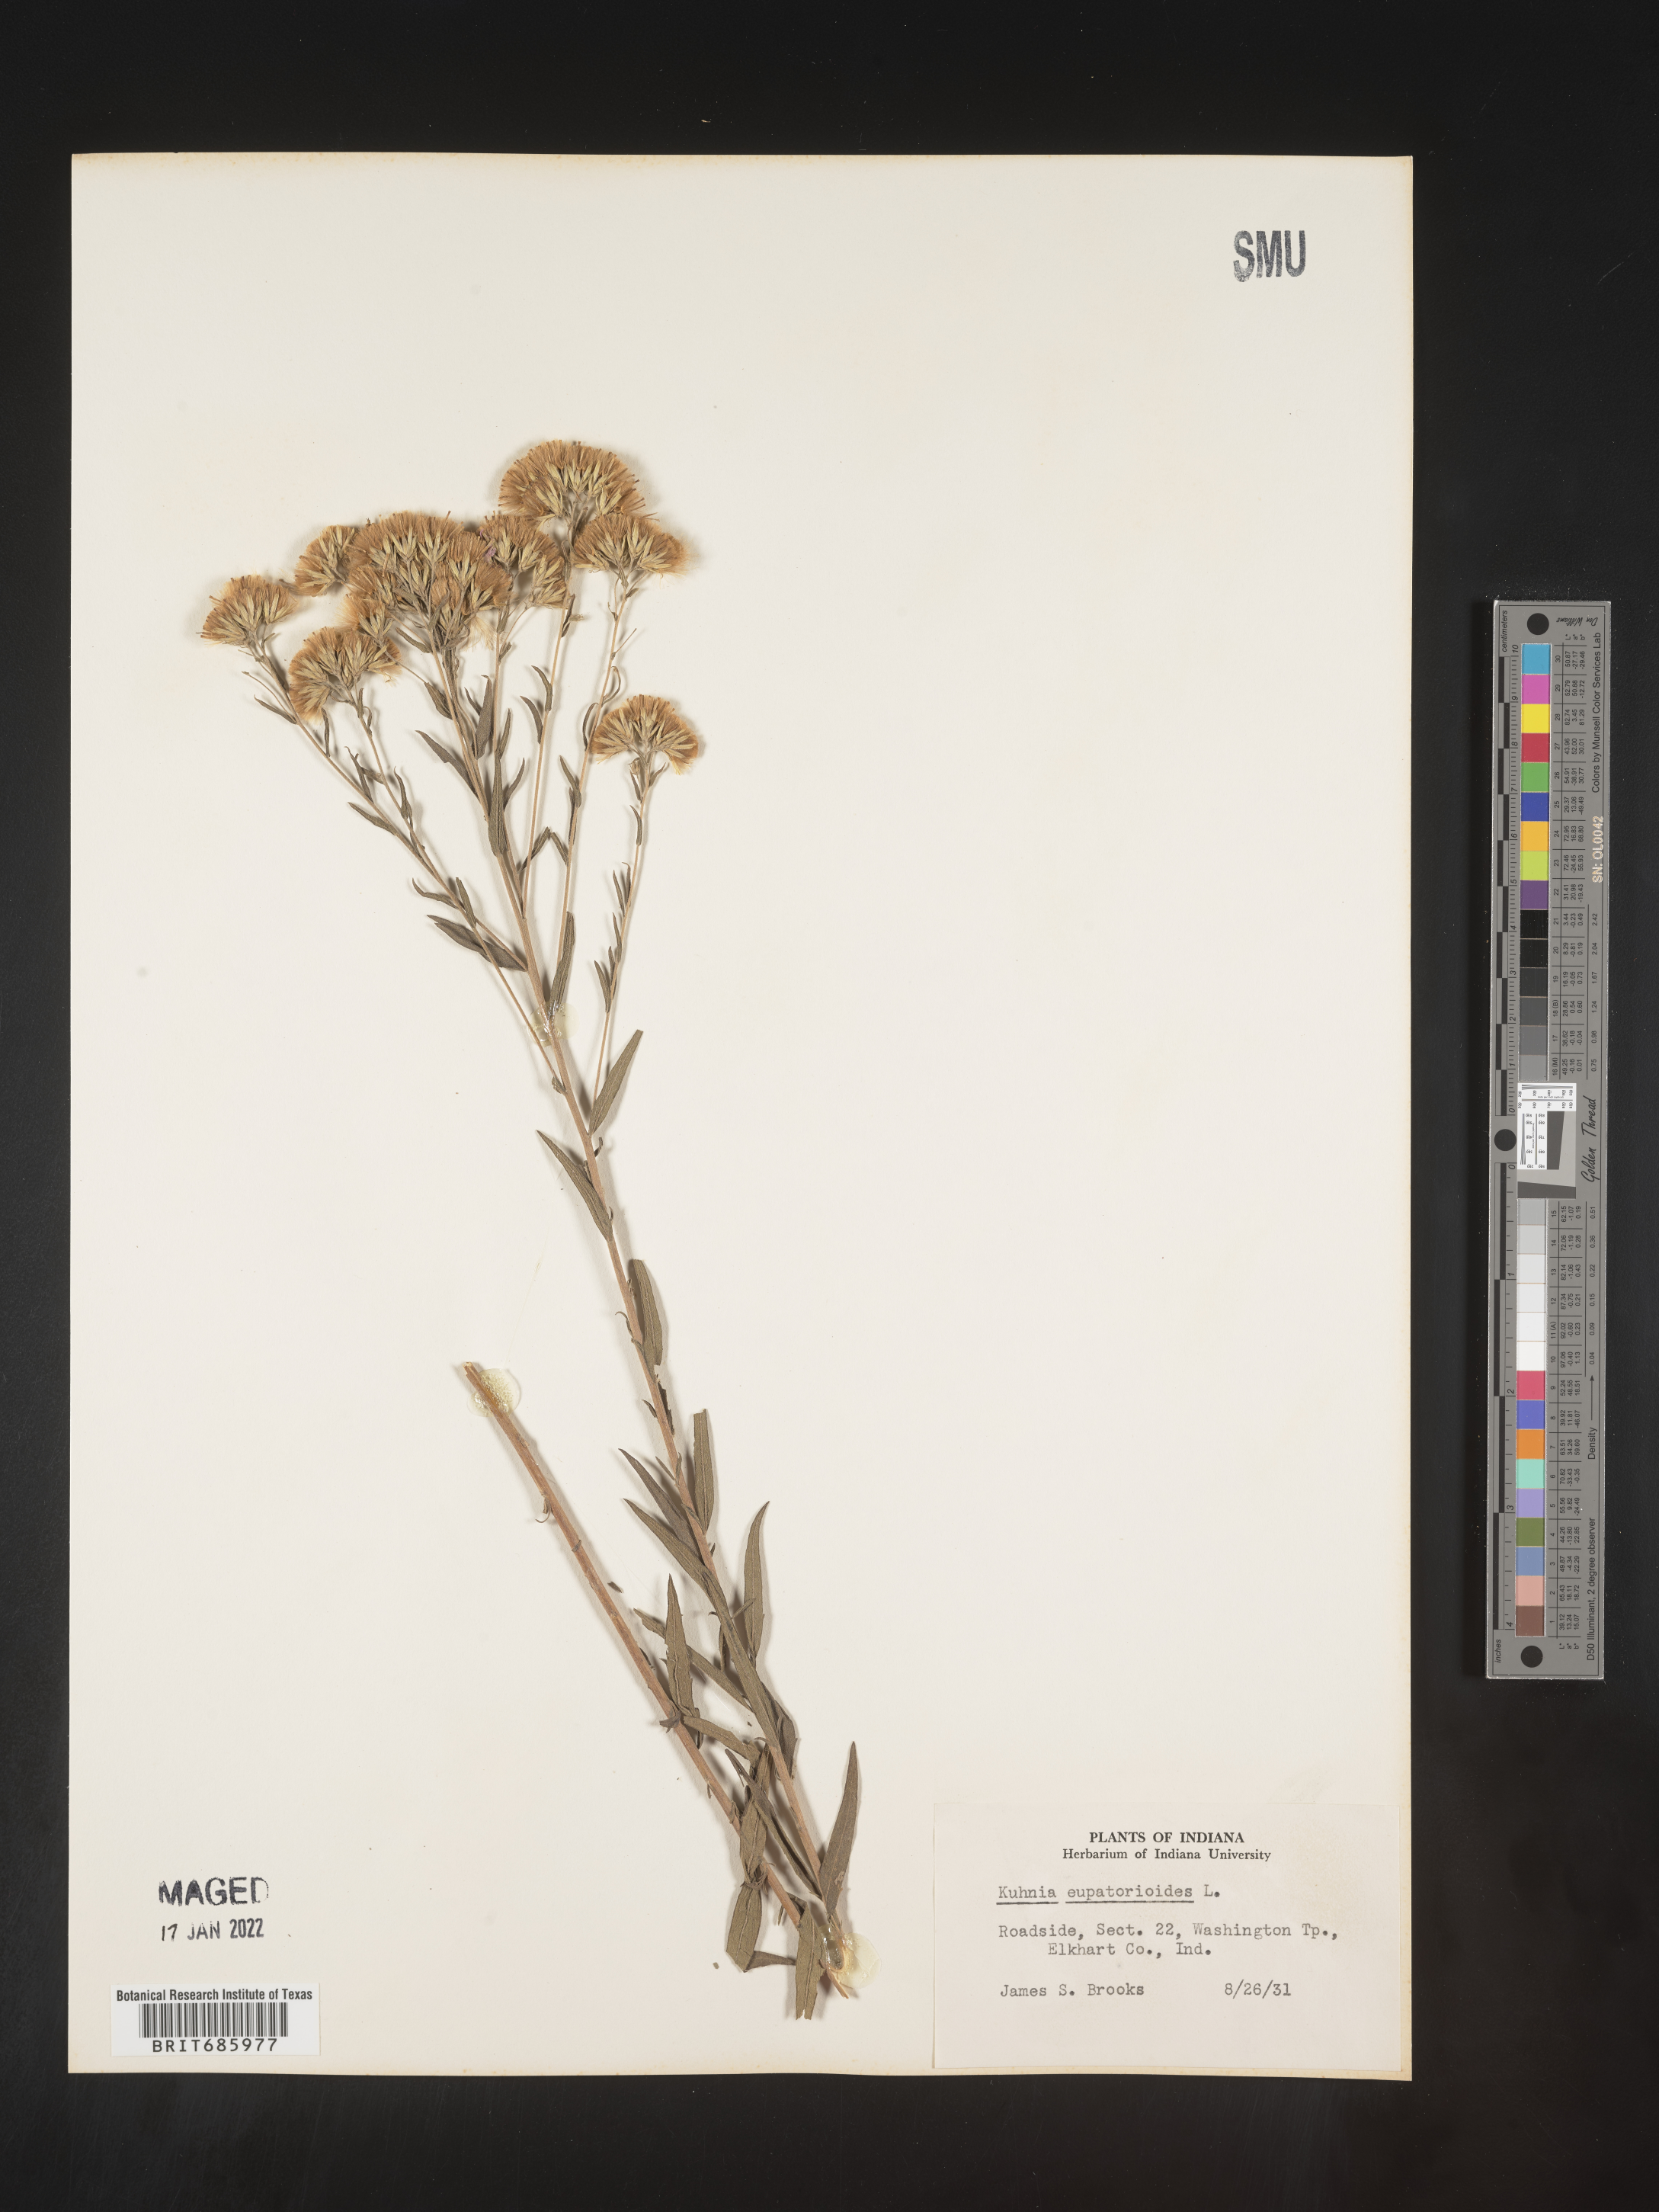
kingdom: Plantae
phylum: Tracheophyta
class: Magnoliopsida
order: Asterales
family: Asteraceae
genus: Brickellia
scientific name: Brickellia eupatorioides
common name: False boneset
